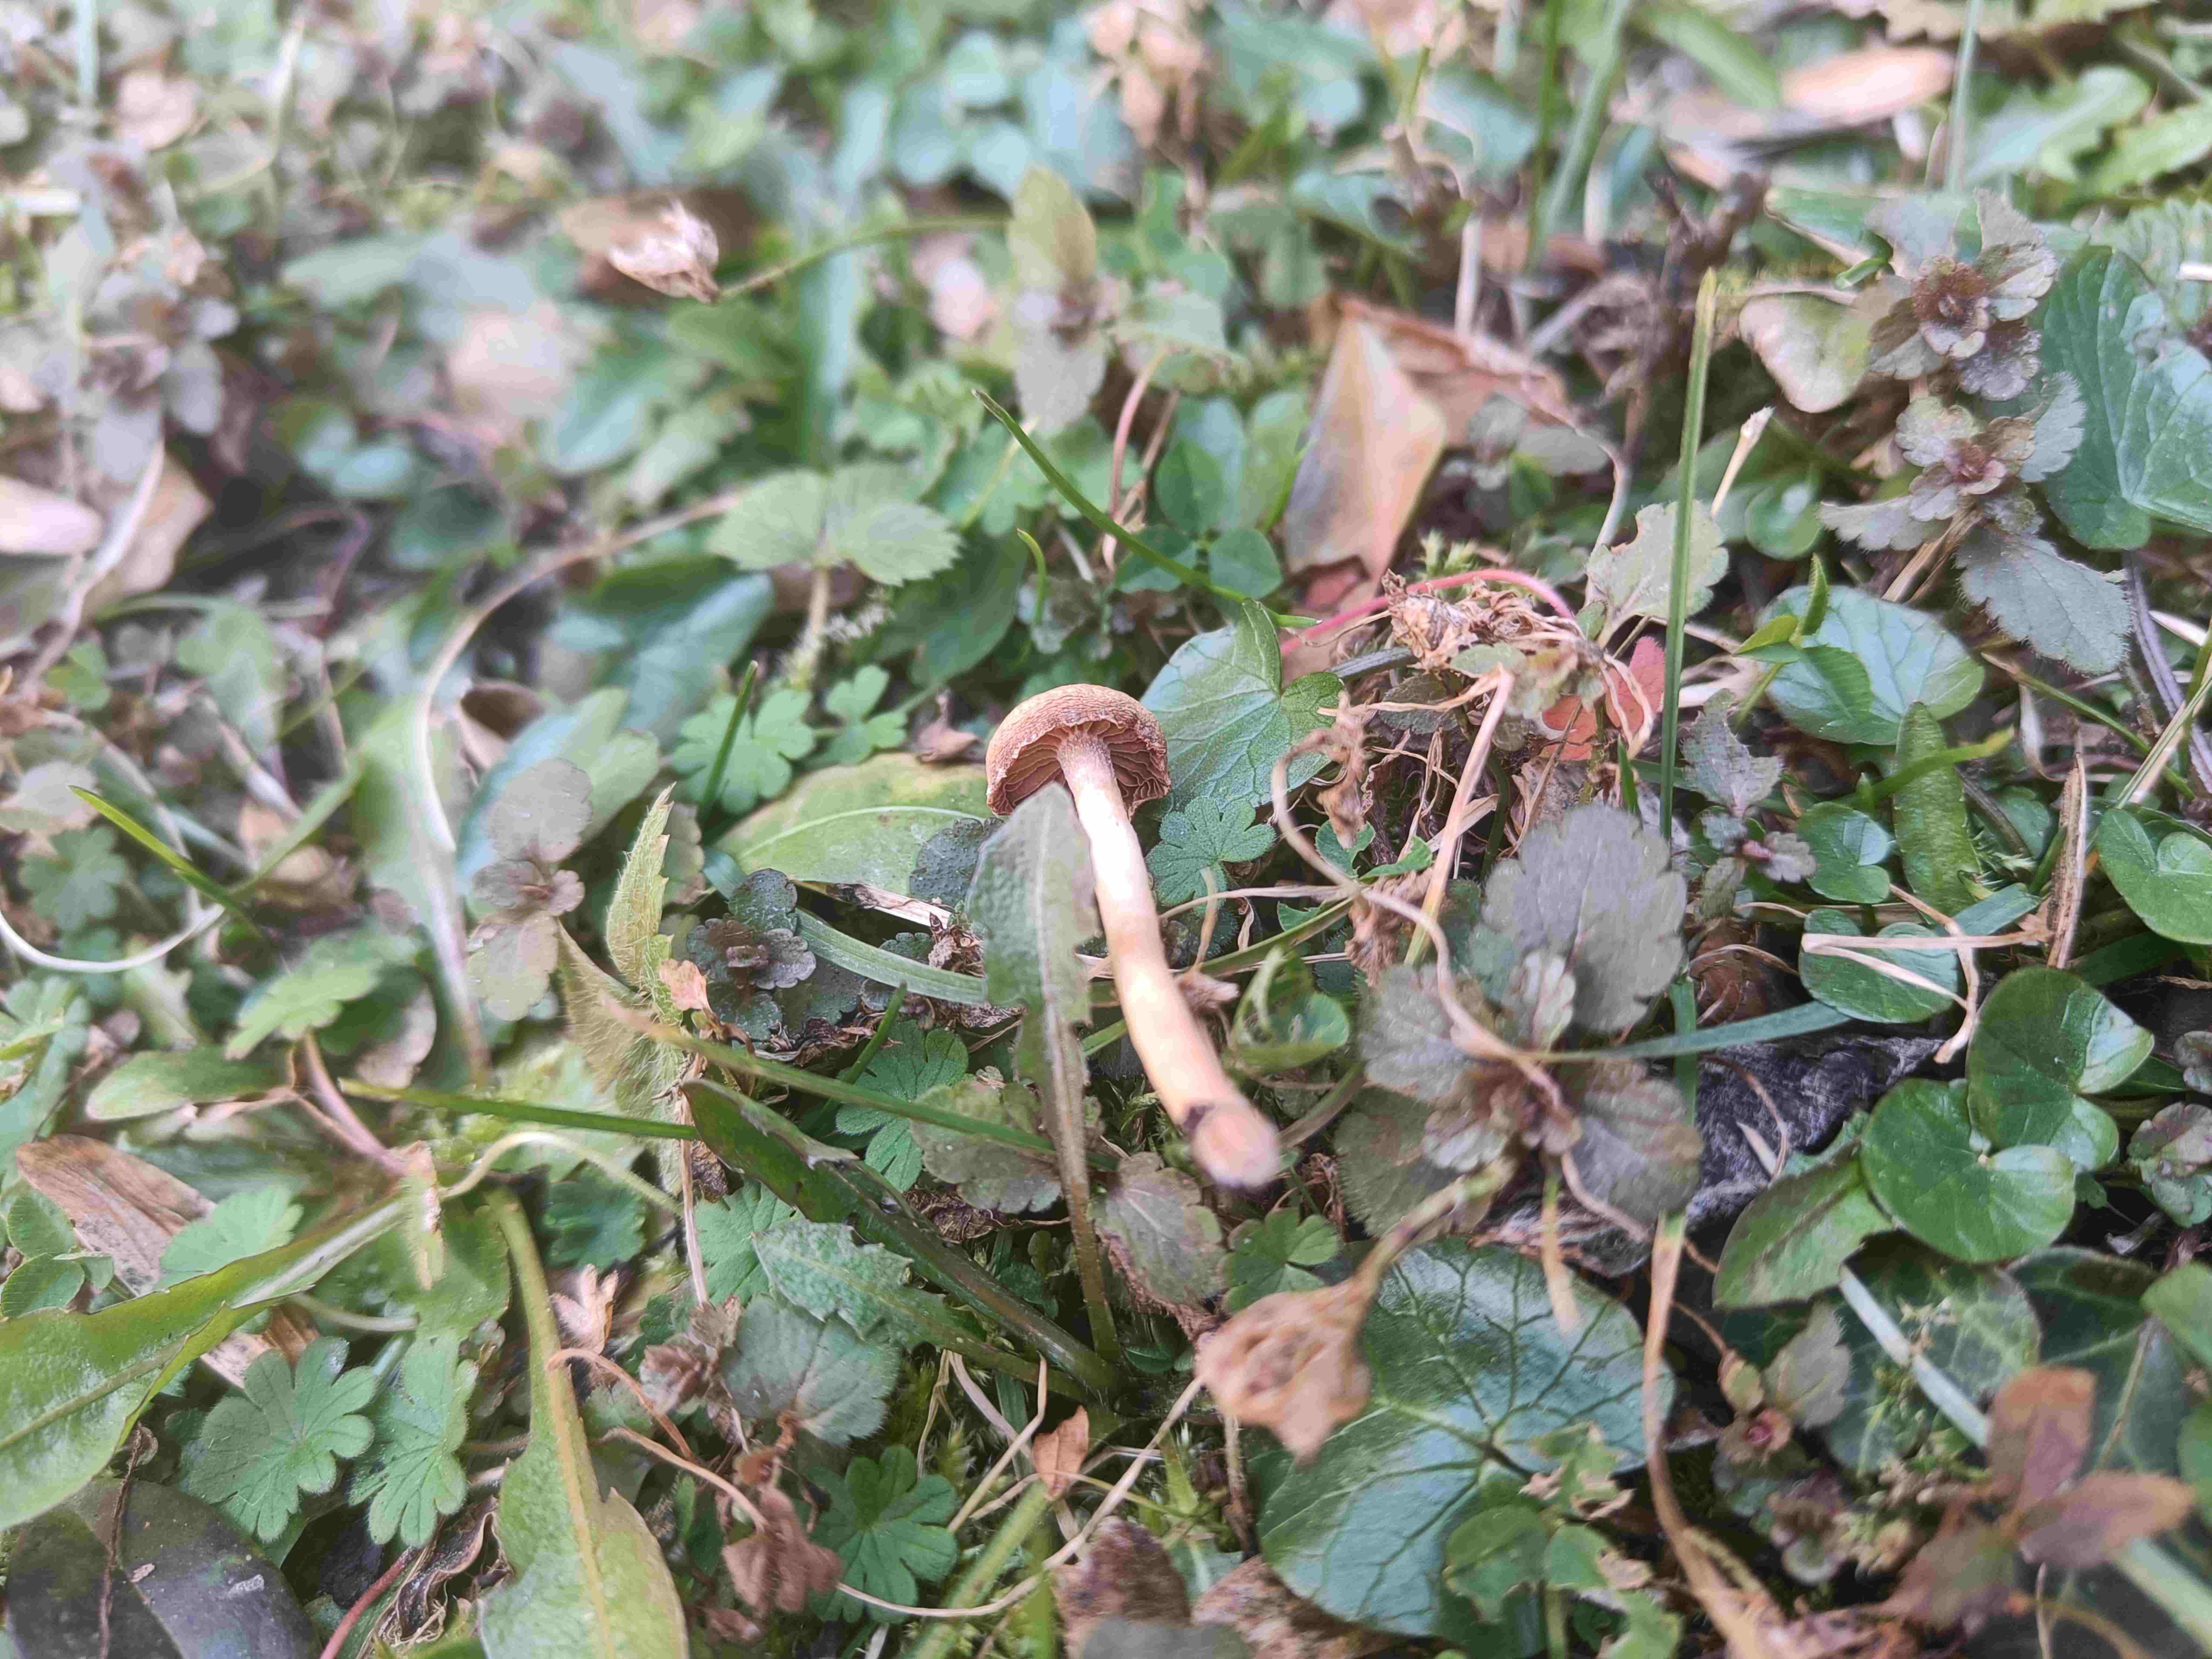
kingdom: Fungi
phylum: Basidiomycota
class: Agaricomycetes
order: Agaricales
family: Tubariaceae
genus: Tubaria
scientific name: Tubaria furfuracea
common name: kliddet fnughat
